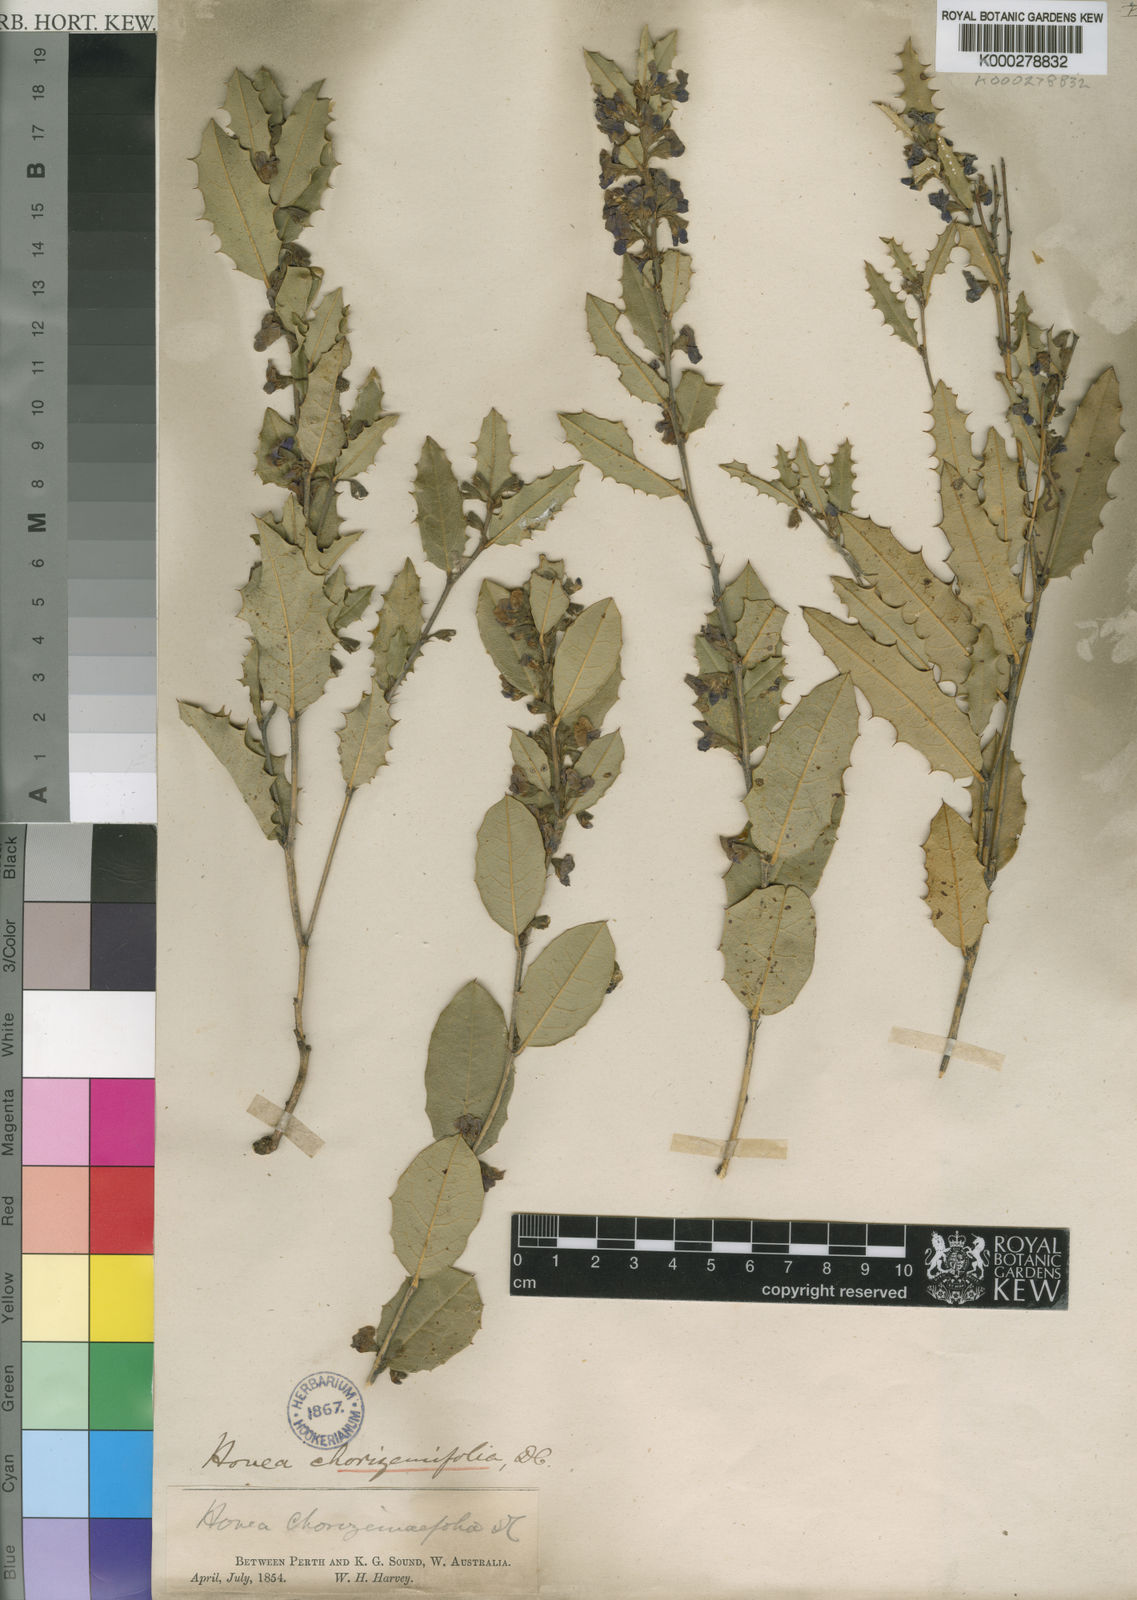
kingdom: Plantae
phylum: Tracheophyta
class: Magnoliopsida
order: Fabales
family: Fabaceae
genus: Hovea
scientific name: Hovea chorizemifolia
